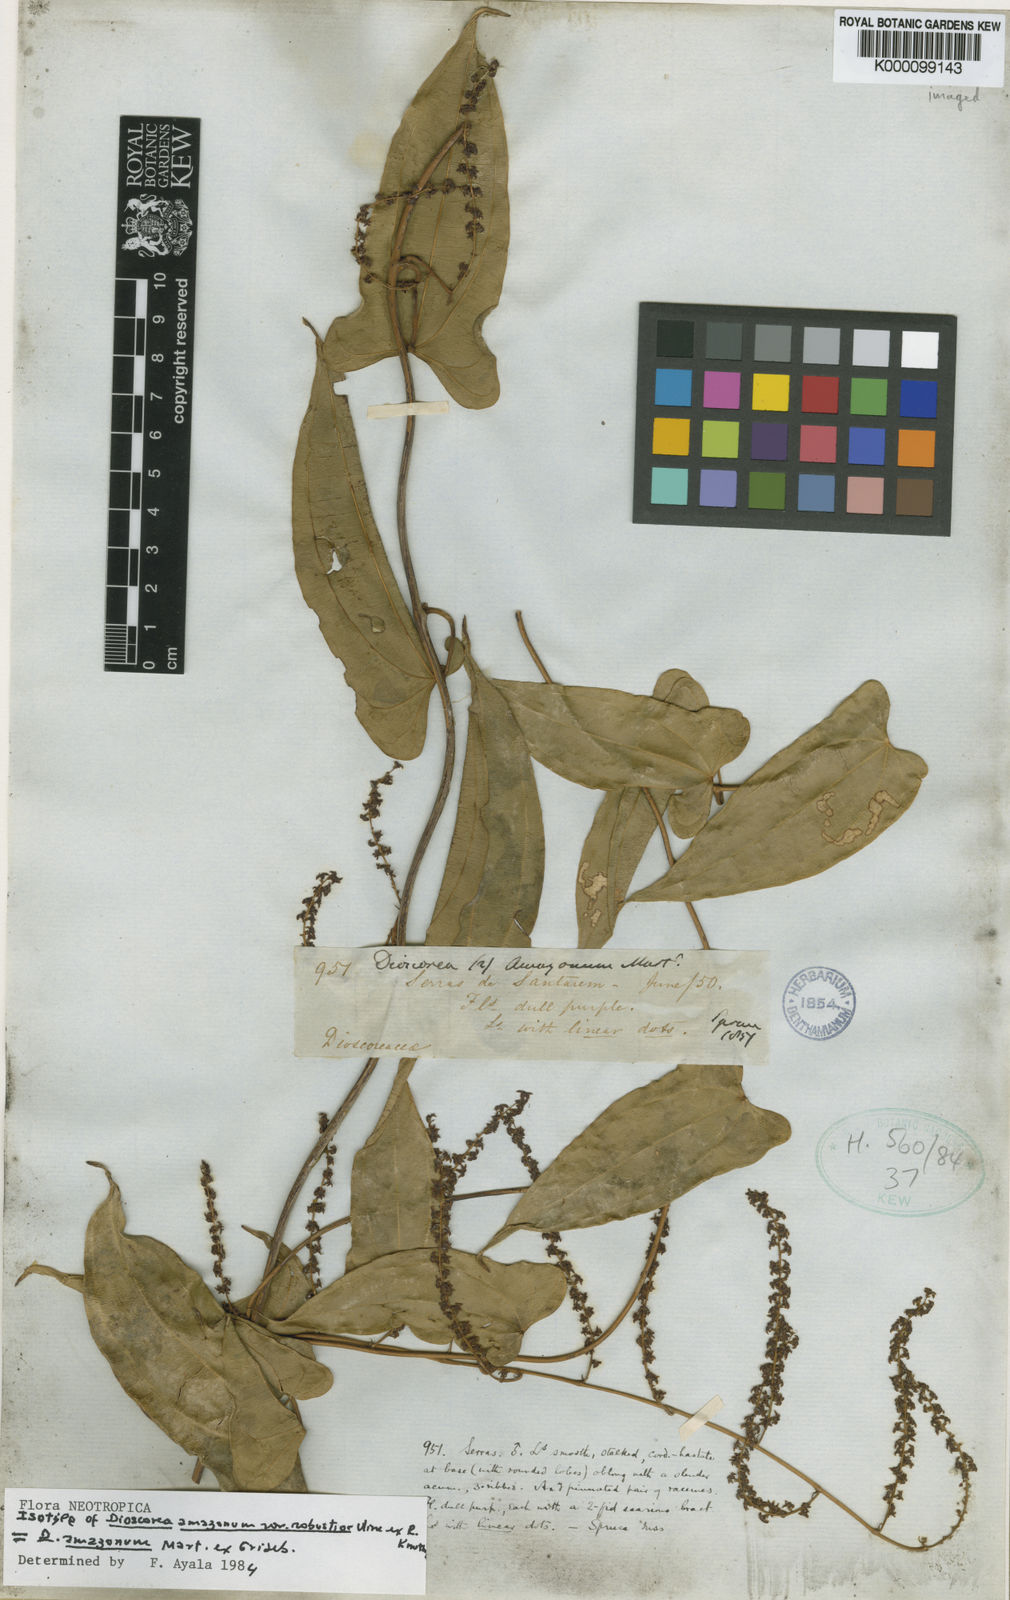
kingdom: Plantae
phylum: Tracheophyta
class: Liliopsida
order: Dioscoreales
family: Dioscoreaceae
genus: Dioscorea
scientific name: Dioscorea amazonum
